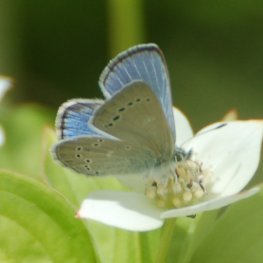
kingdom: Animalia
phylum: Arthropoda
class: Insecta
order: Lepidoptera
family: Lycaenidae
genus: Glaucopsyche
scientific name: Glaucopsyche lygdamus
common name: Silvery Blue
